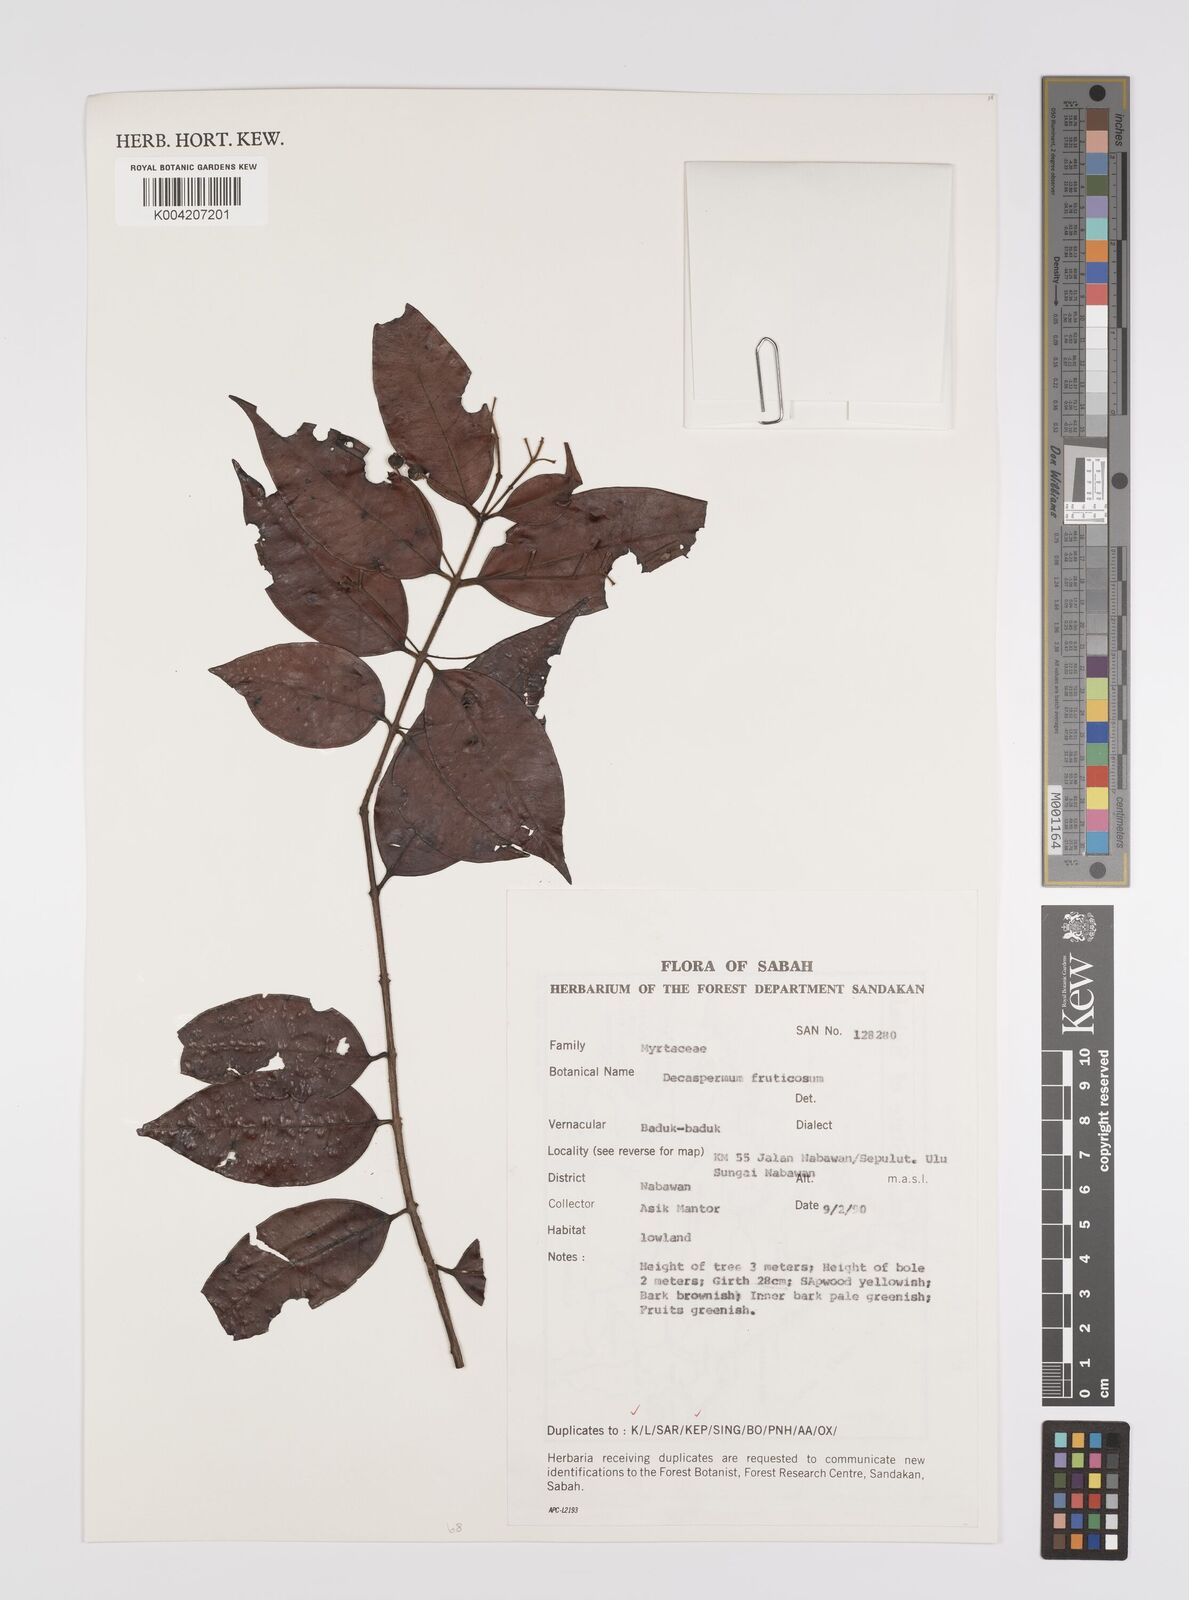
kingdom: Plantae
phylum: Tracheophyta
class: Magnoliopsida
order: Myrtales
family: Myrtaceae
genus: Decaspermum
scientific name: Decaspermum parviflorum
